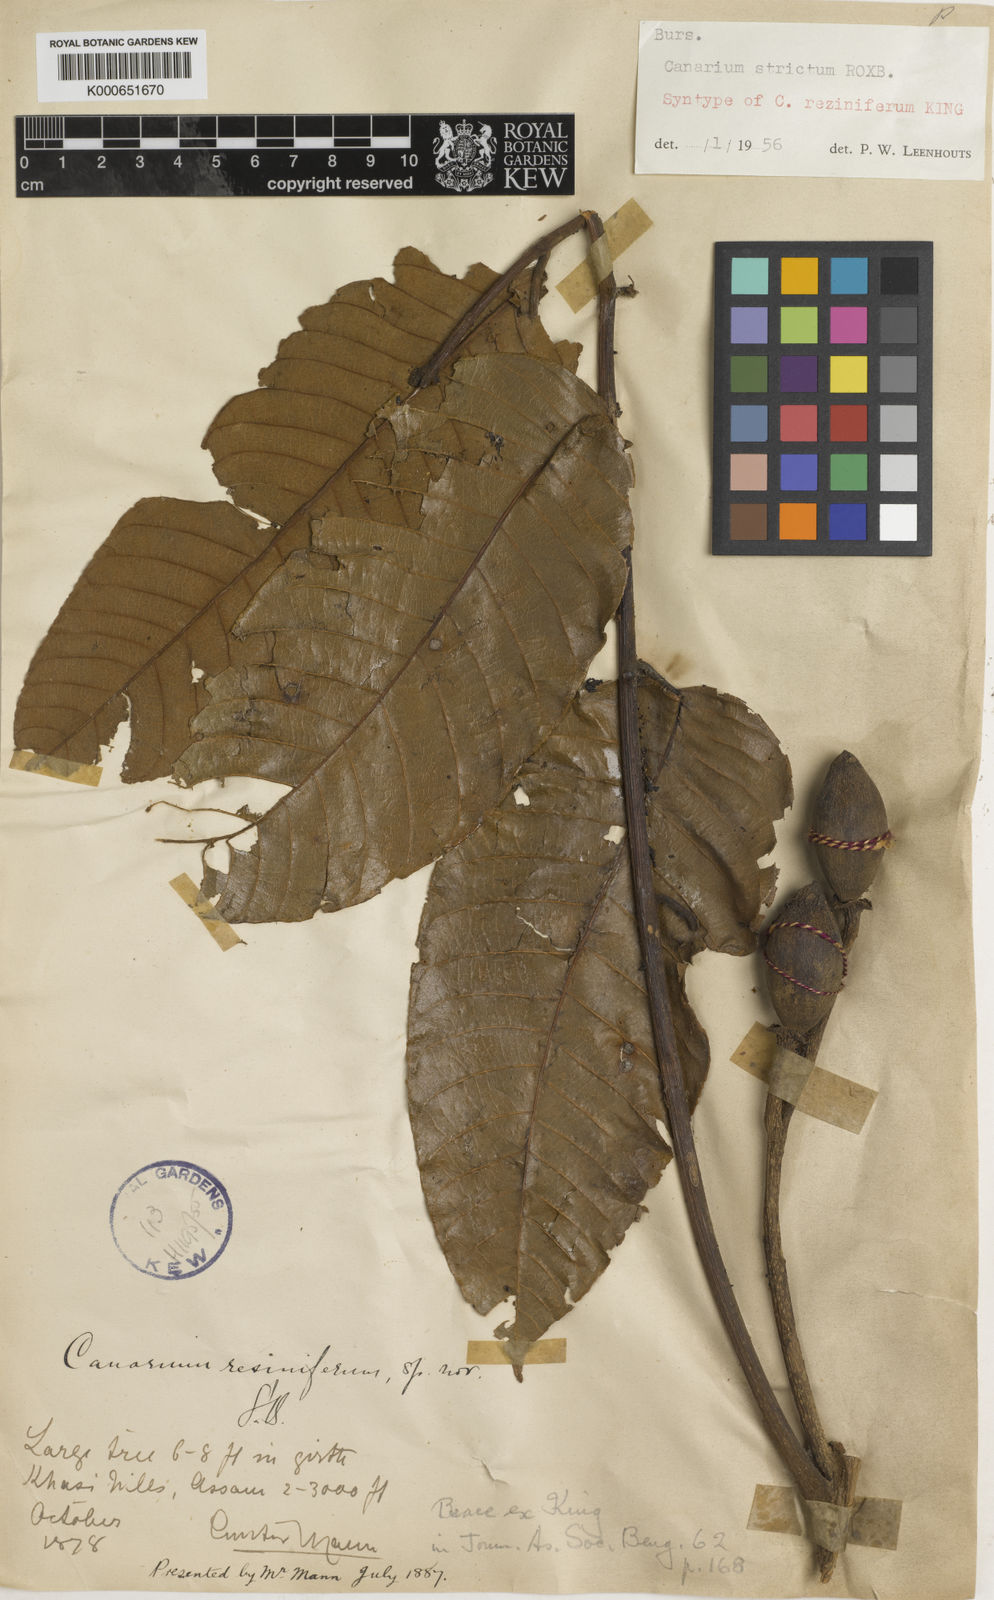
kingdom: Plantae
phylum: Tracheophyta
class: Magnoliopsida
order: Sapindales
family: Burseraceae
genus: Canarium
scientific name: Canarium strictum
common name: Indian white-mahogany
